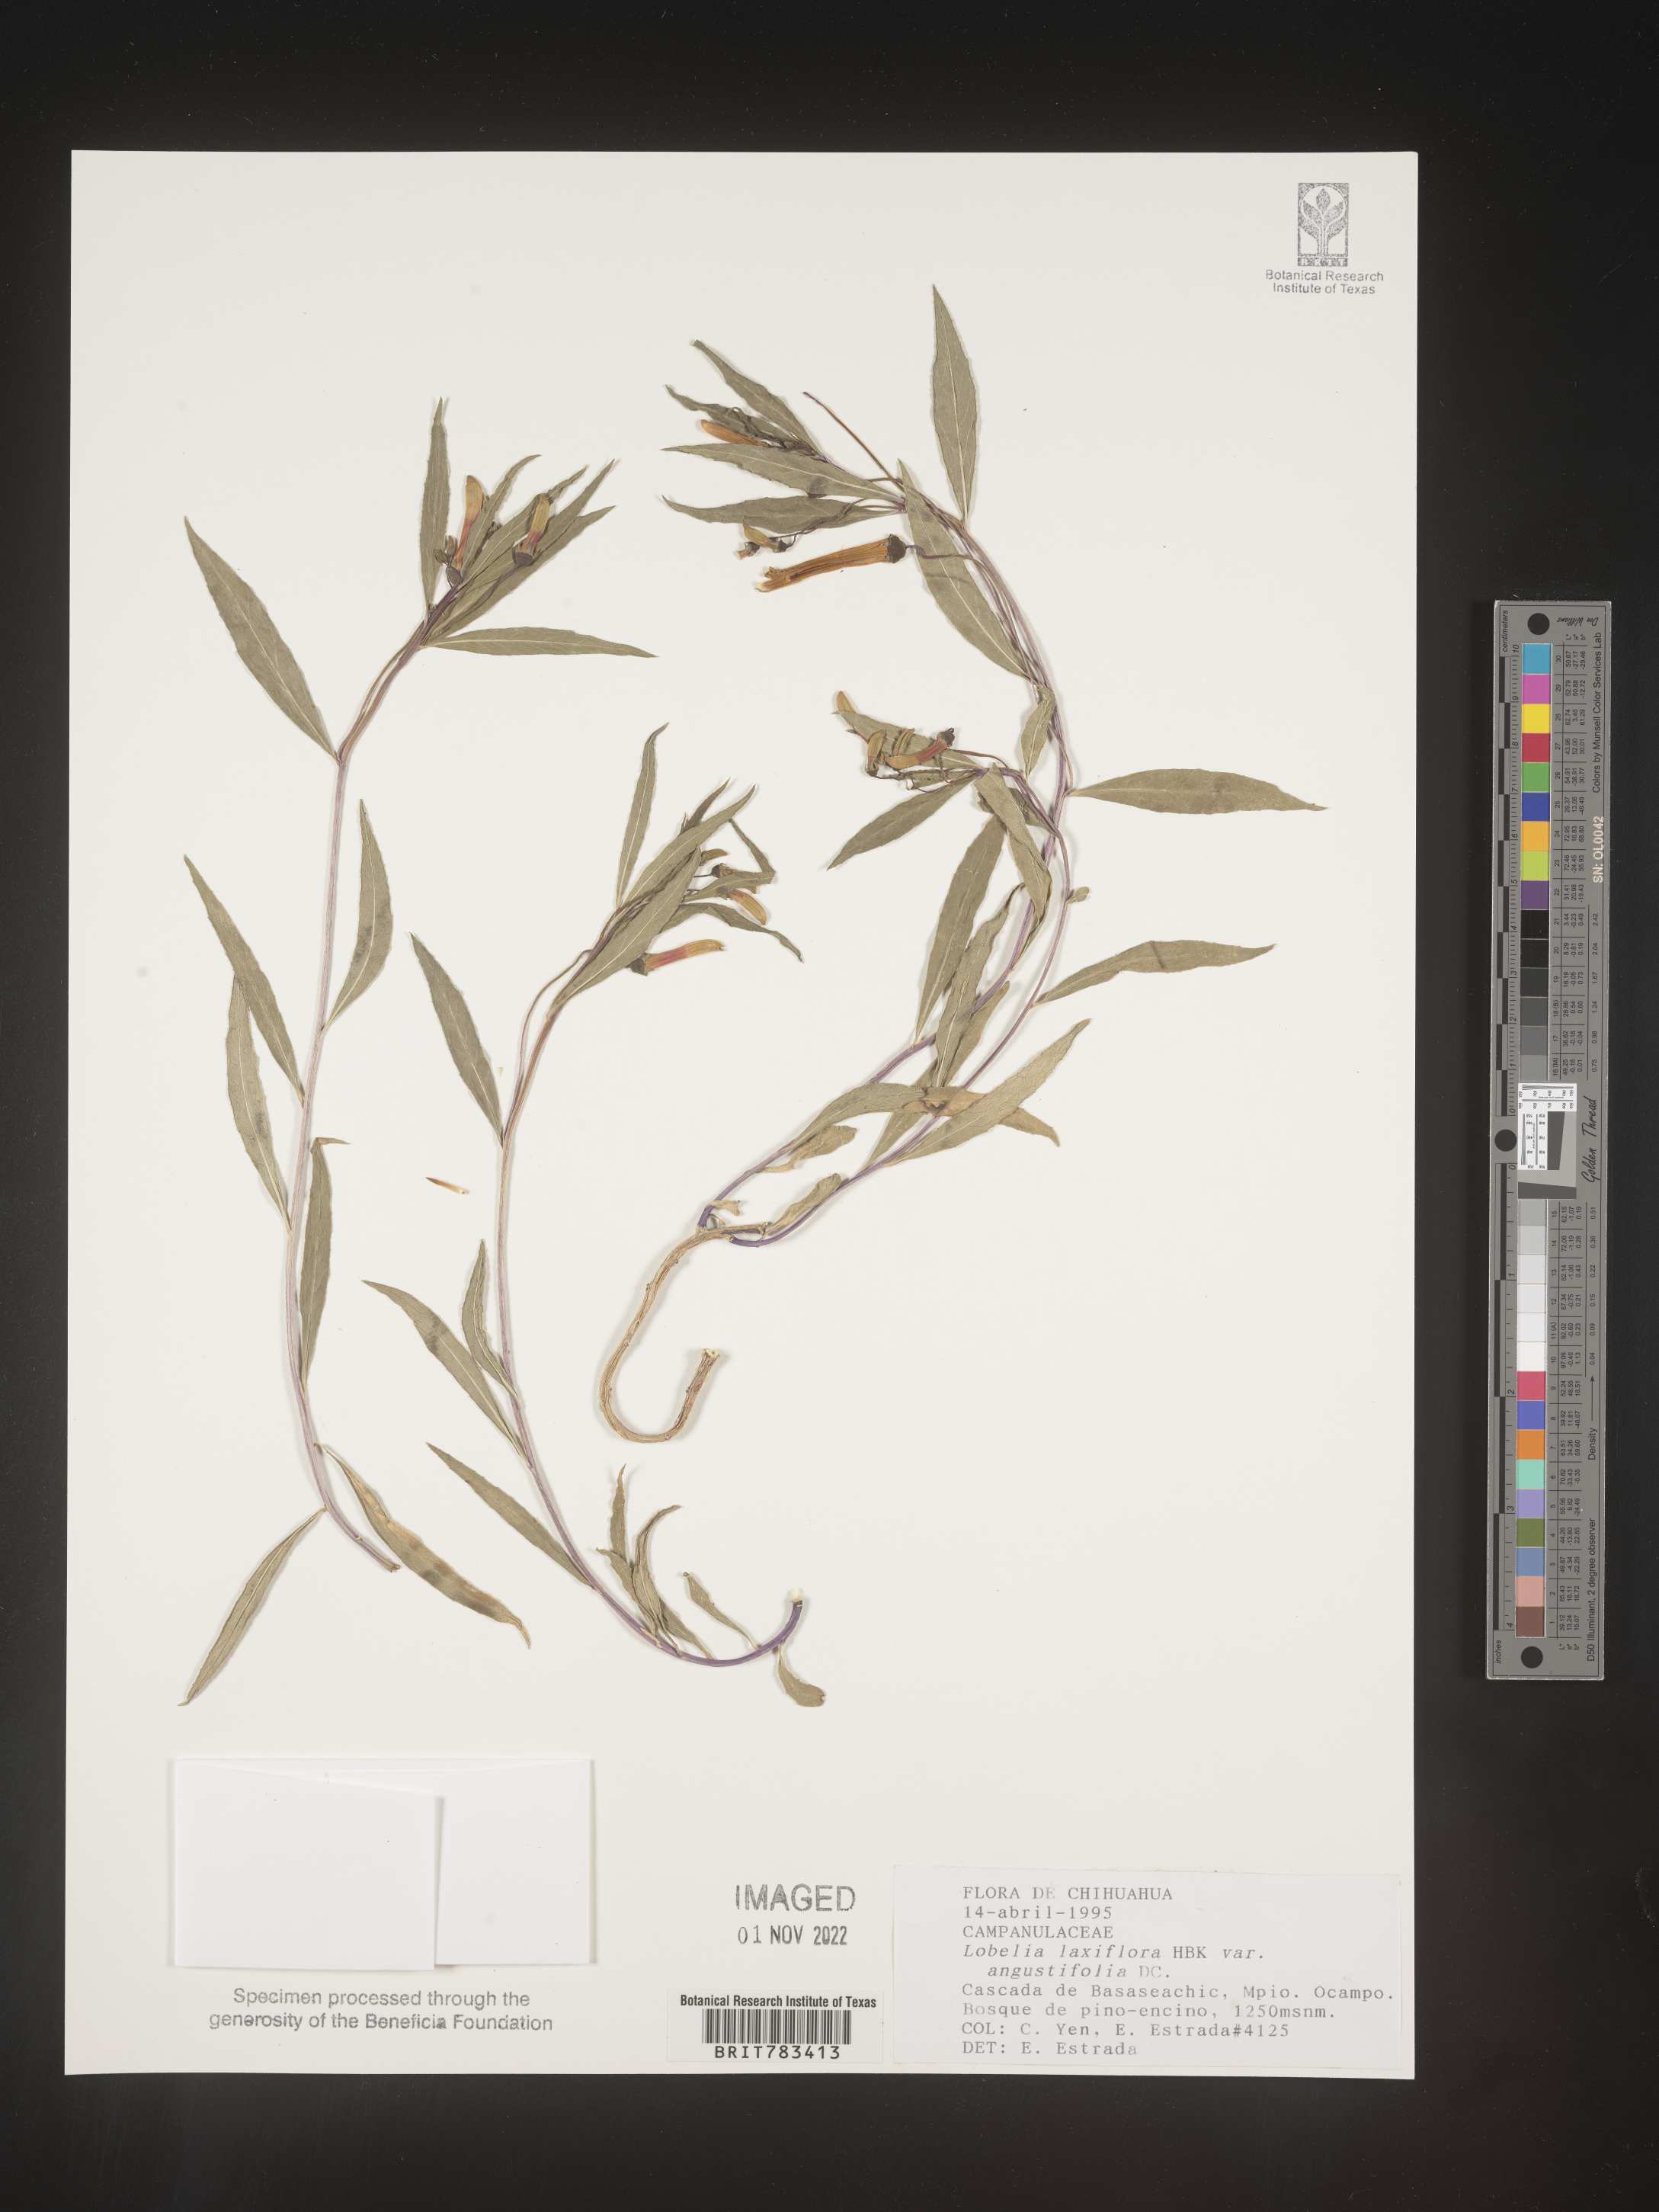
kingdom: Plantae
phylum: Tracheophyta
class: Magnoliopsida
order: Asterales
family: Campanulaceae
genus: Lobelia
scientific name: Lobelia
